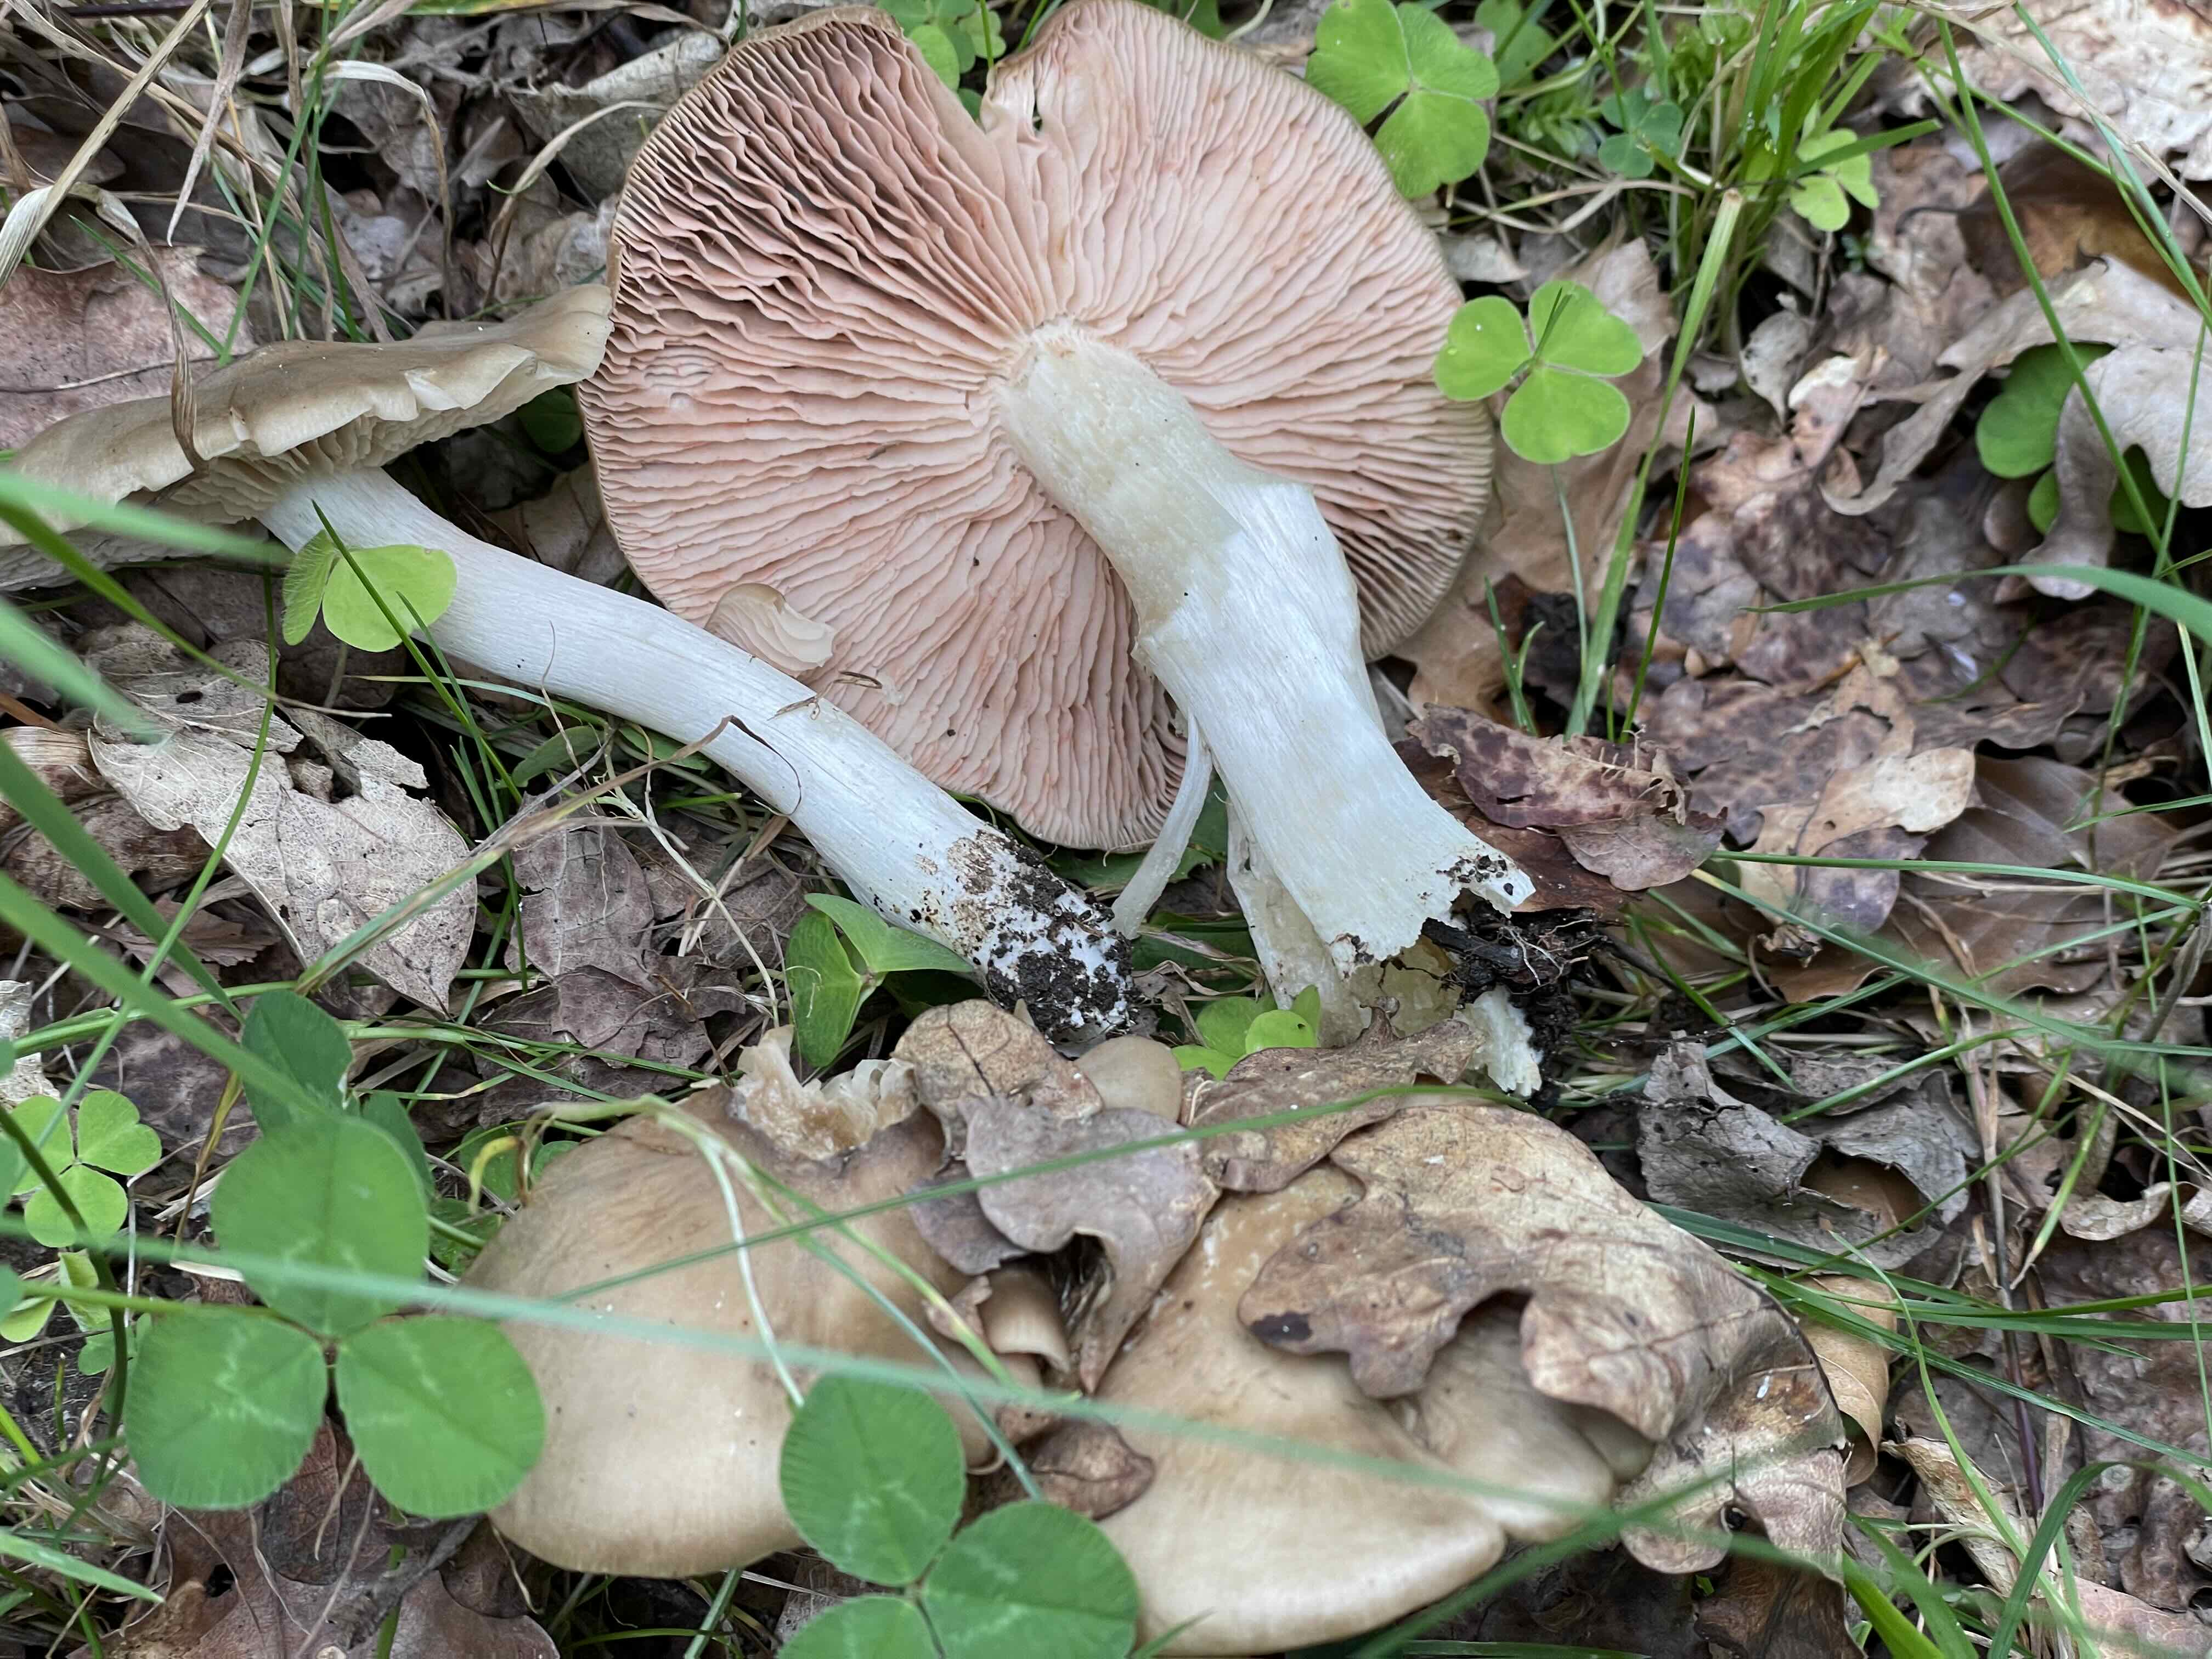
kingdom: Fungi
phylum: Basidiomycota
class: Agaricomycetes
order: Agaricales
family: Entolomataceae
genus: Entoloma
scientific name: Entoloma lividoalbum
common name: lysstokket rødblad
